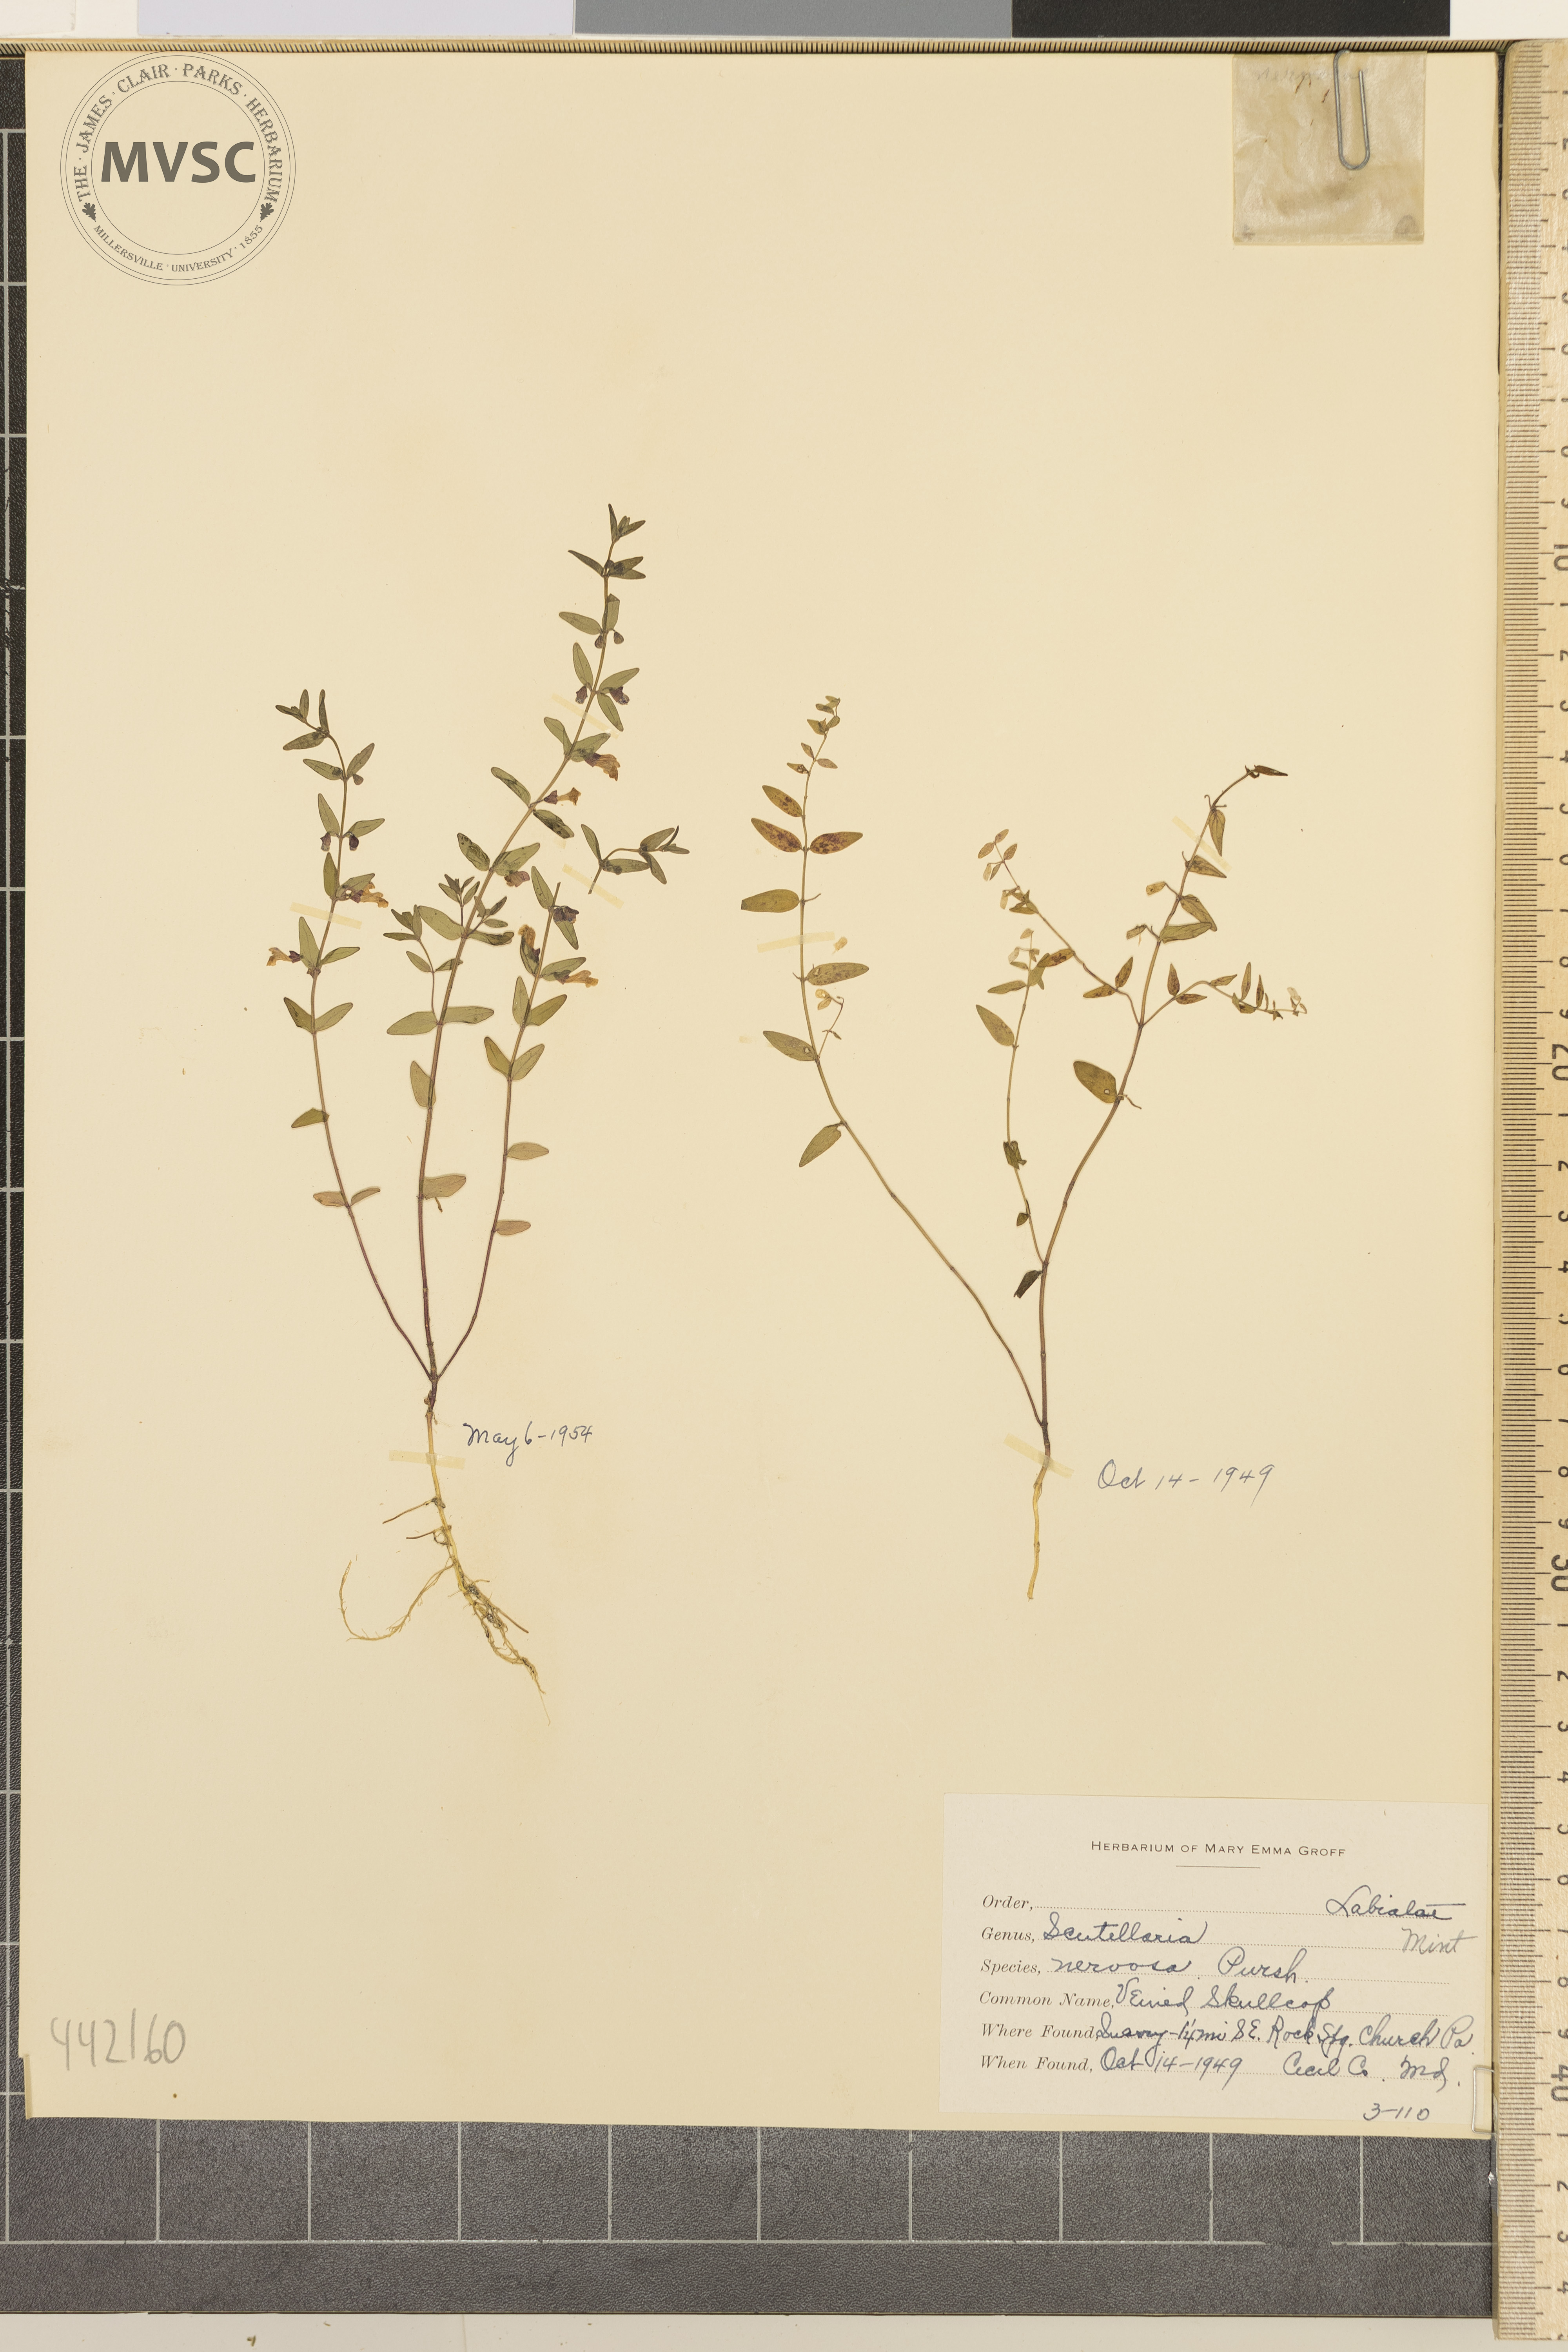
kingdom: Plantae
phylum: Tracheophyta
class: Magnoliopsida
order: Lamiales
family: Lamiaceae
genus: Scutellaria
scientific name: Scutellaria nervosa
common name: Veined skullcap
